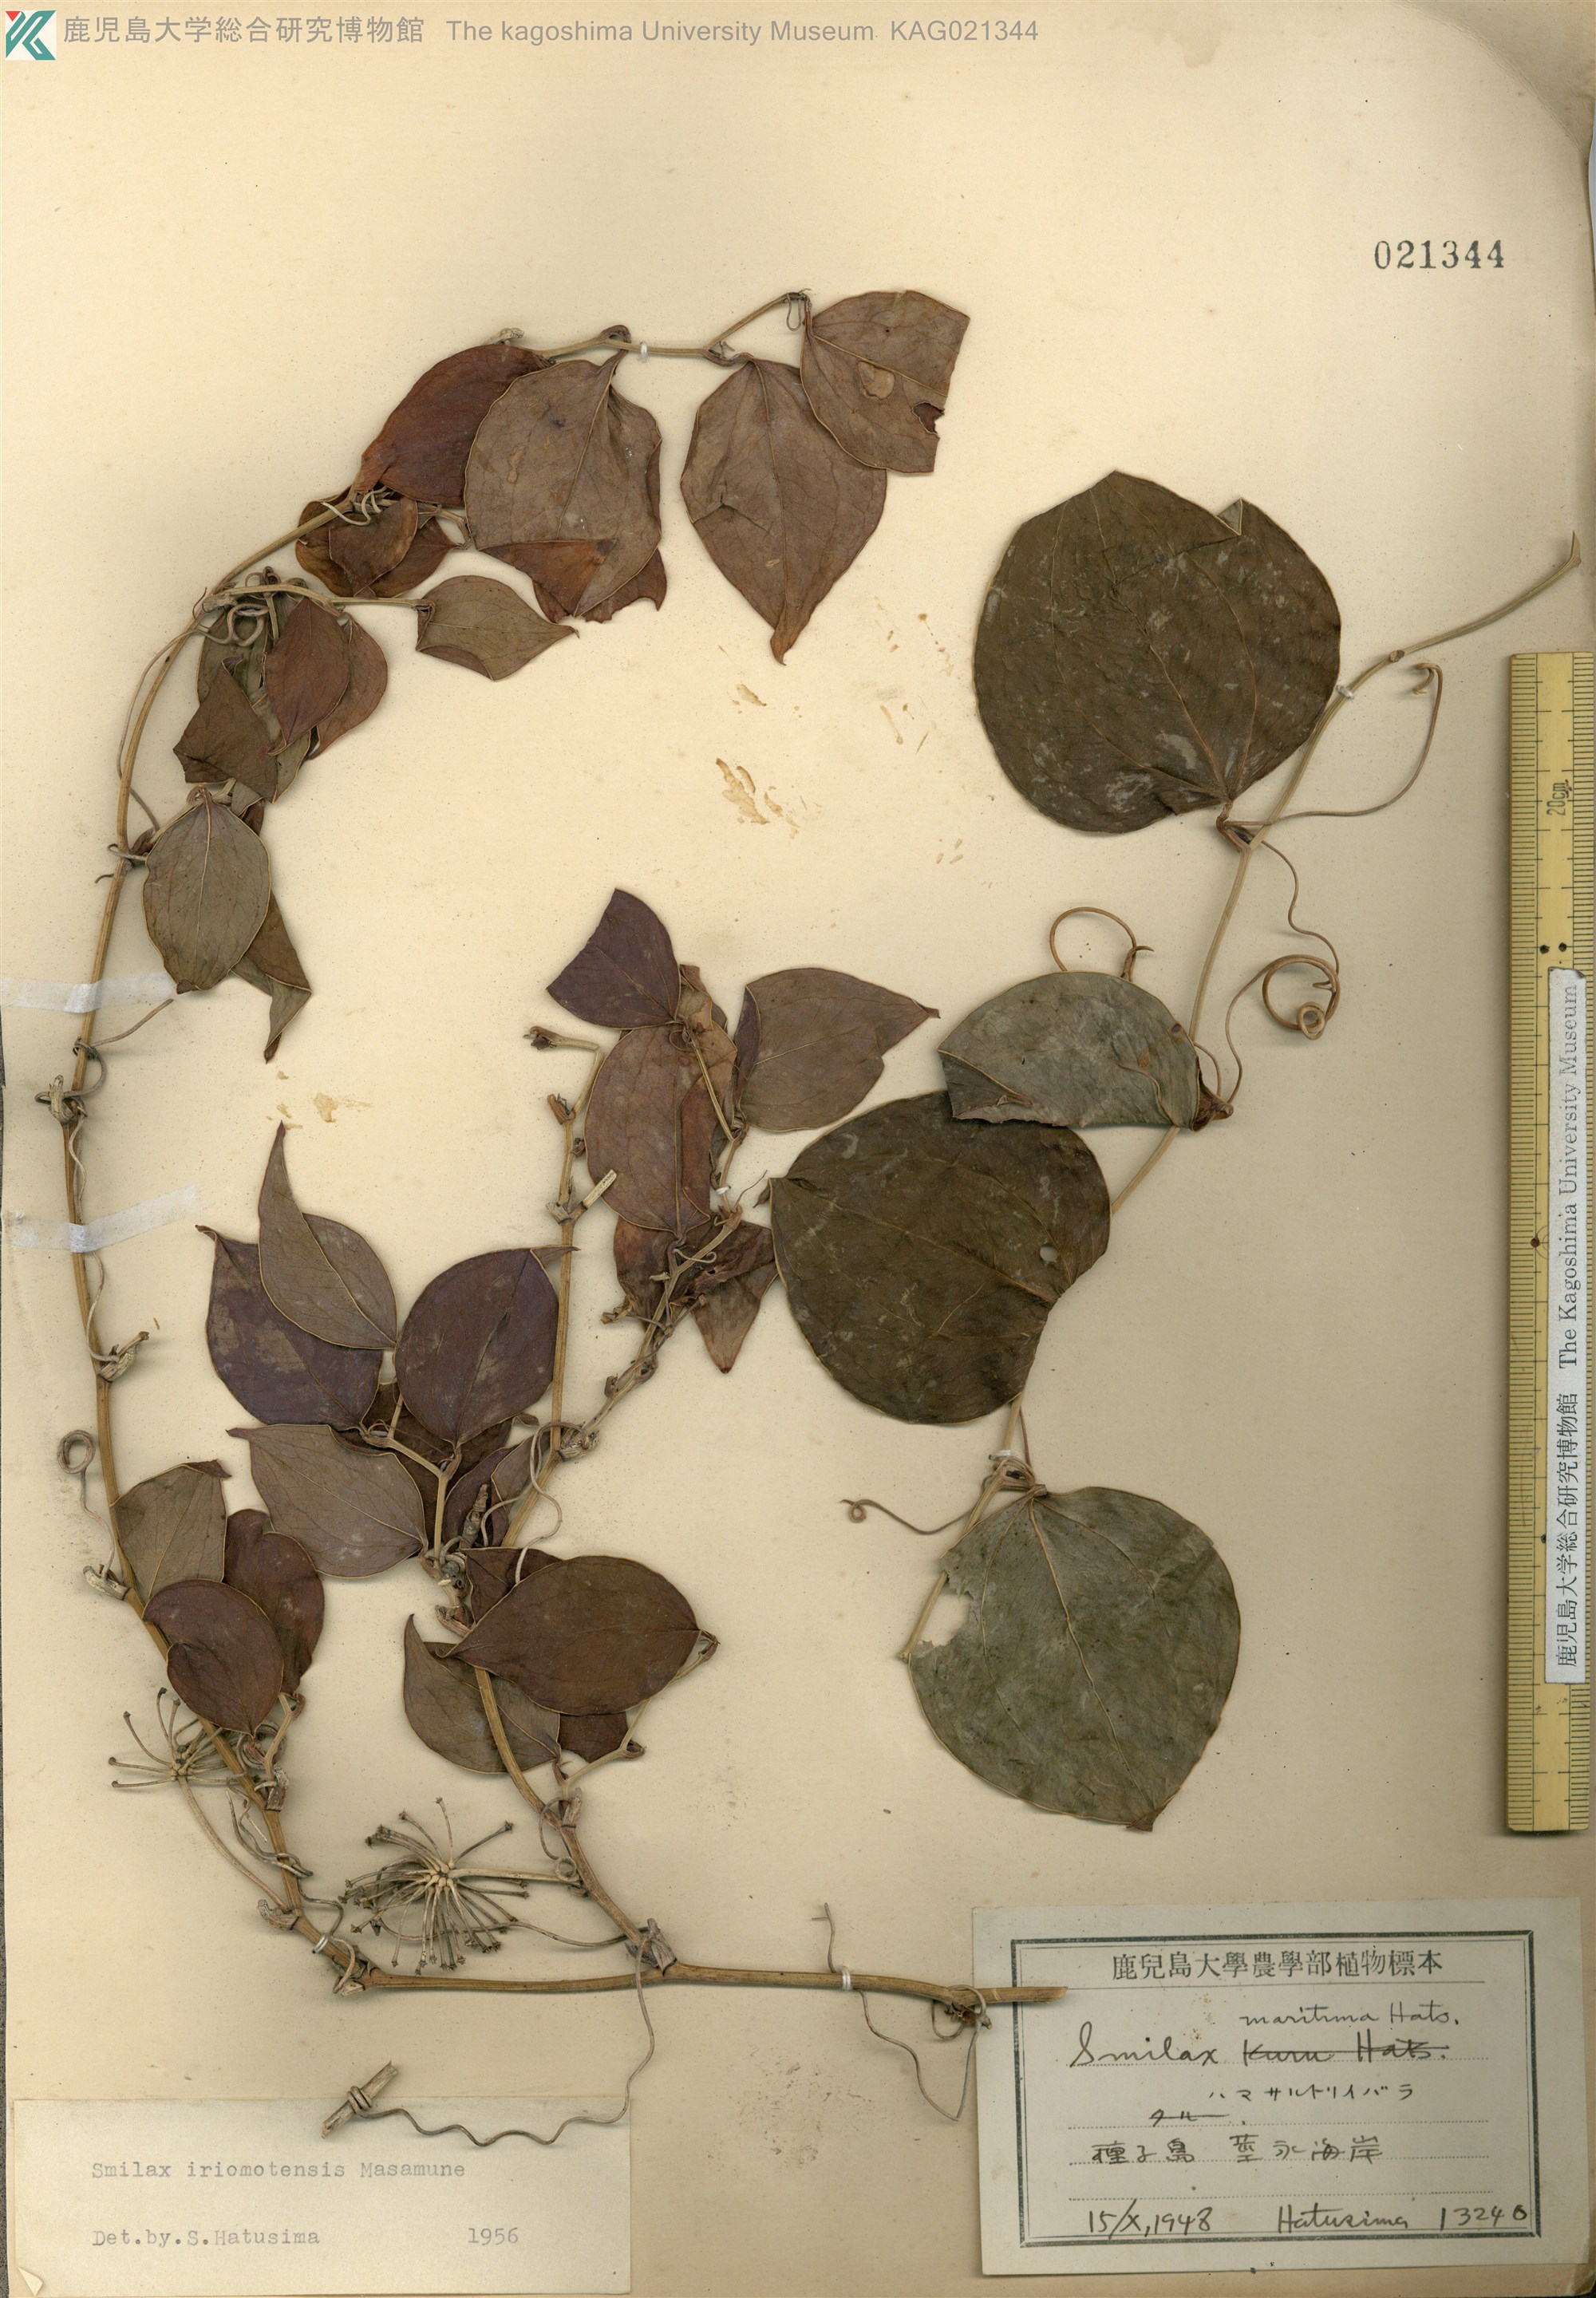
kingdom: Plantae
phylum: Tracheophyta
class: Liliopsida
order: Liliales
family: Smilacaceae
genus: Smilax
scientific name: Smilax sebeana
